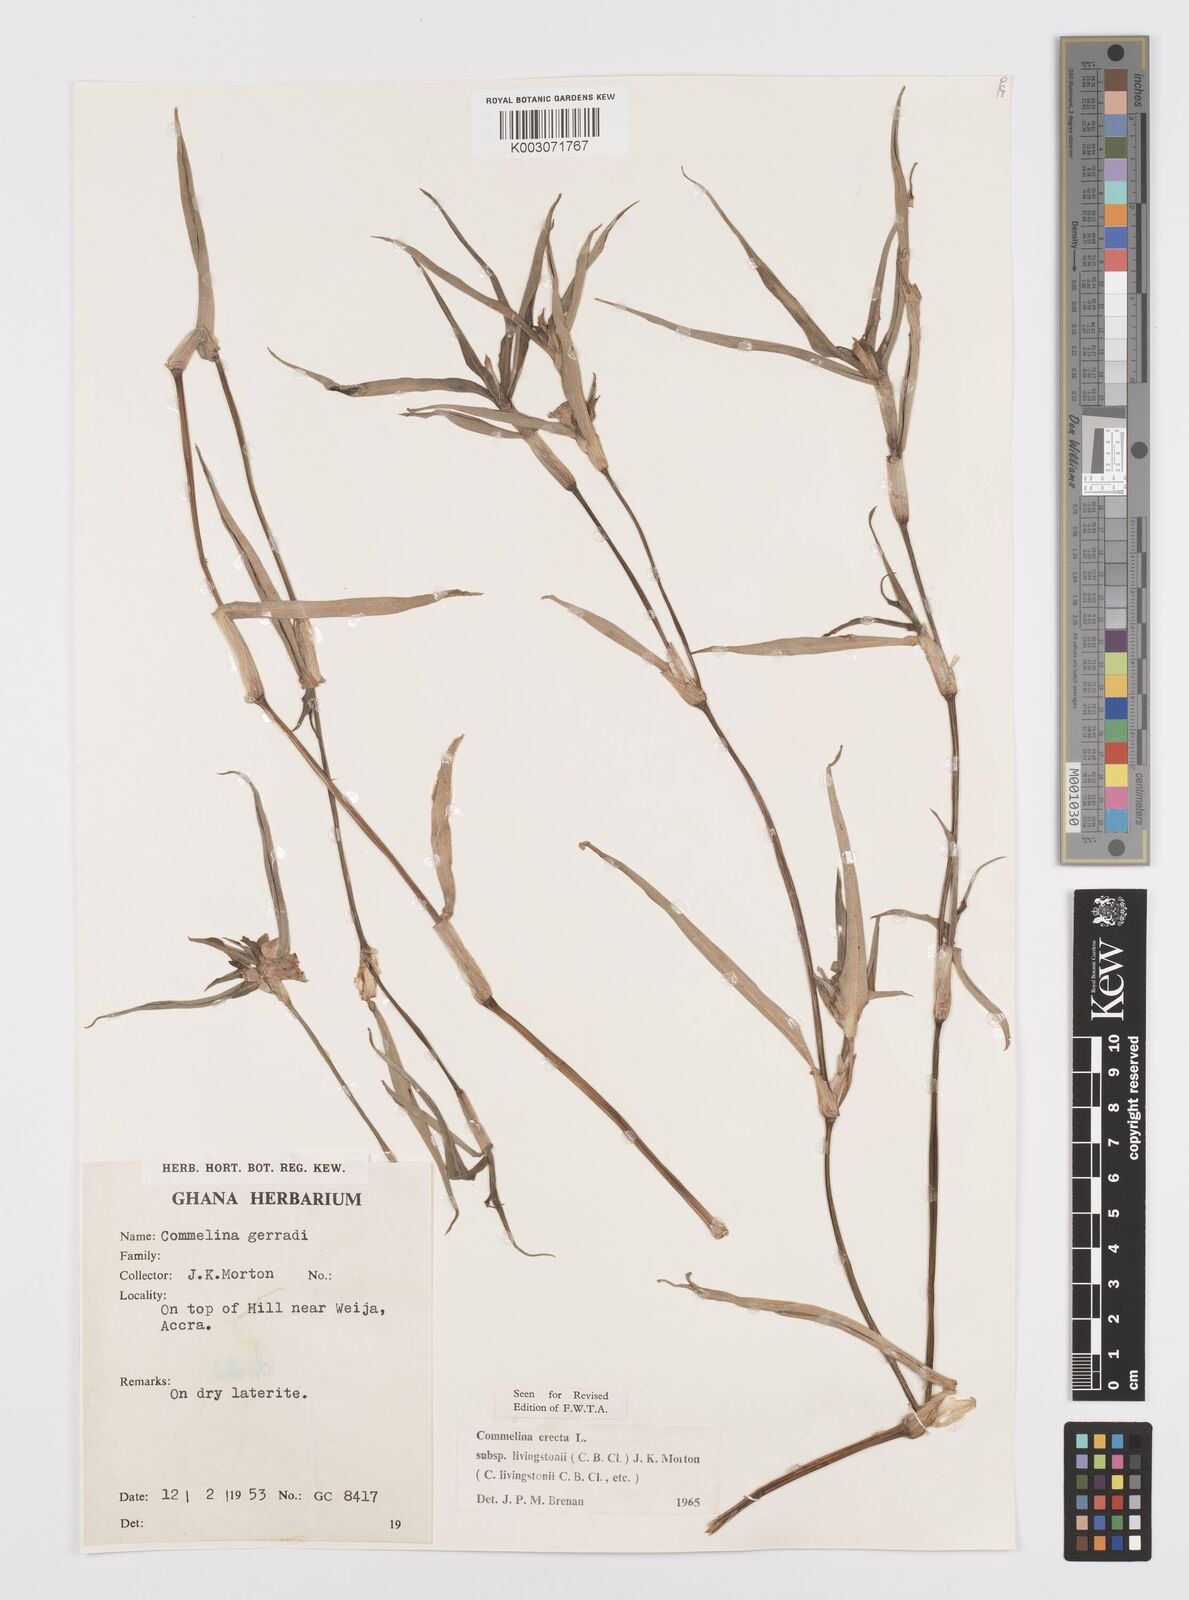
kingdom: Plantae
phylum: Tracheophyta
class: Liliopsida
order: Commelinales
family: Commelinaceae
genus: Commelina
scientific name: Commelina erecta
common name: Blousel blommetjie
